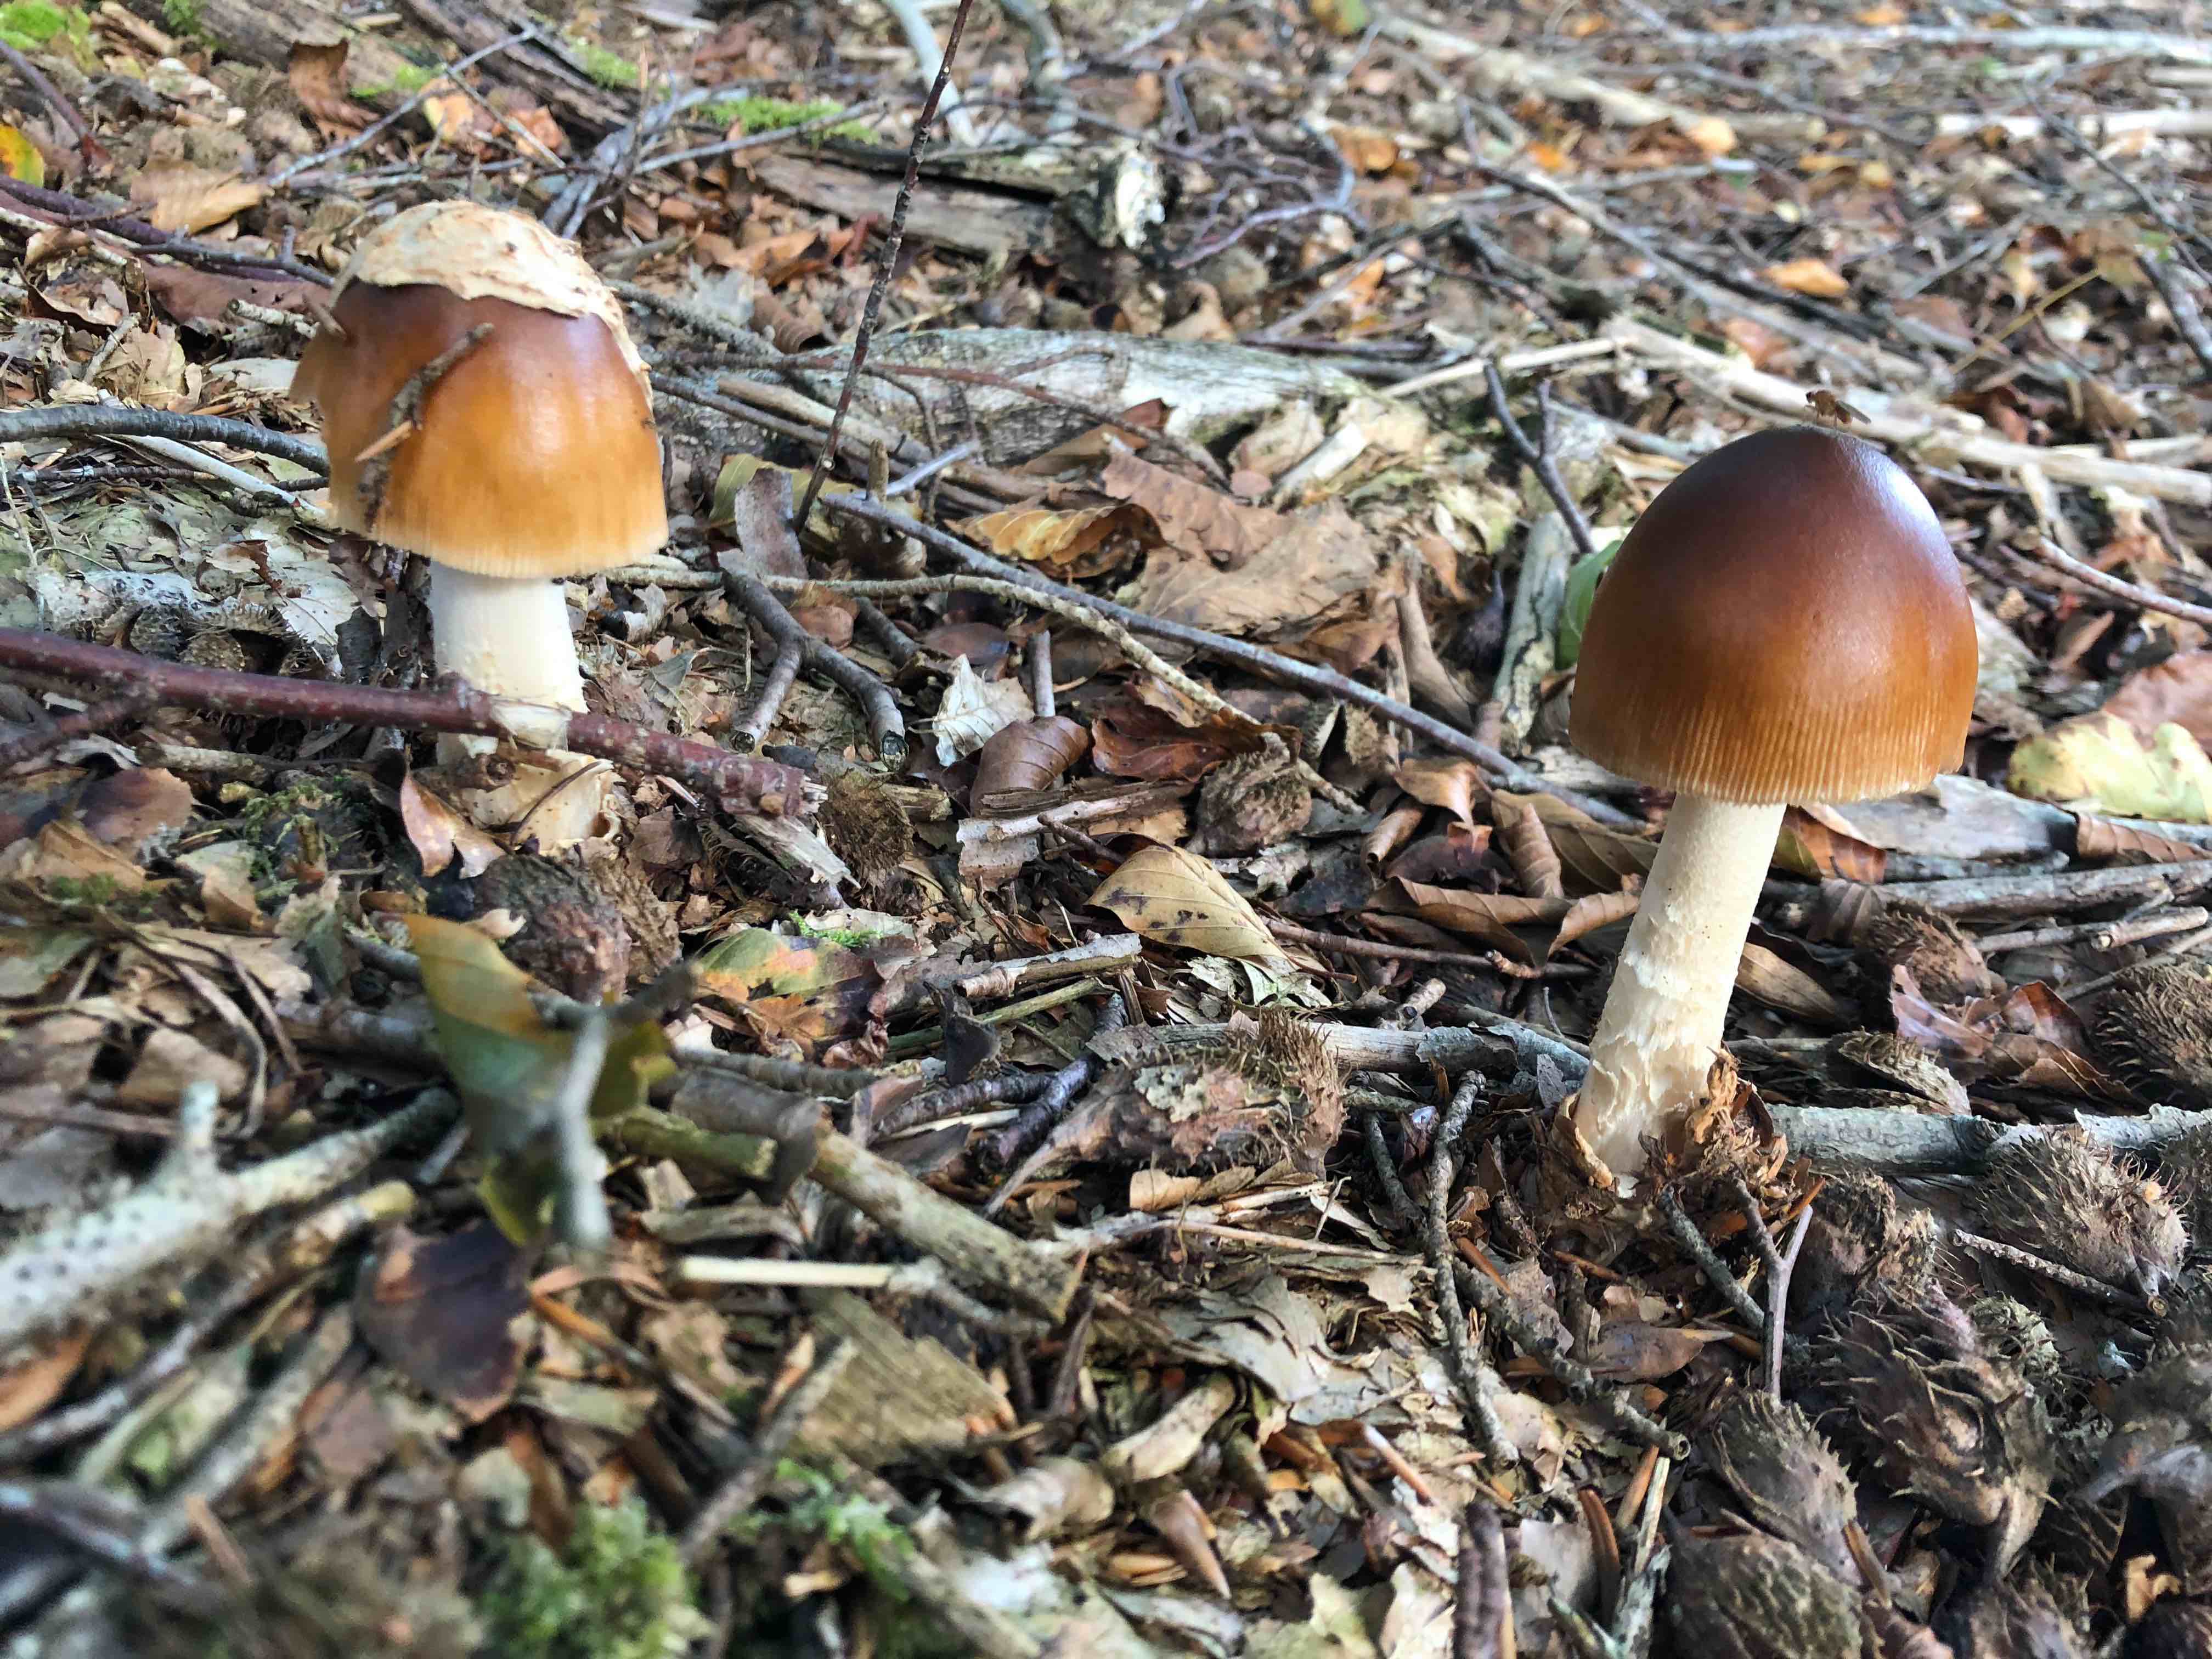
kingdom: Fungi
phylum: Basidiomycota
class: Agaricomycetes
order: Agaricales
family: Amanitaceae
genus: Amanita
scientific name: Amanita fulva
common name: brun kam-fluesvamp
